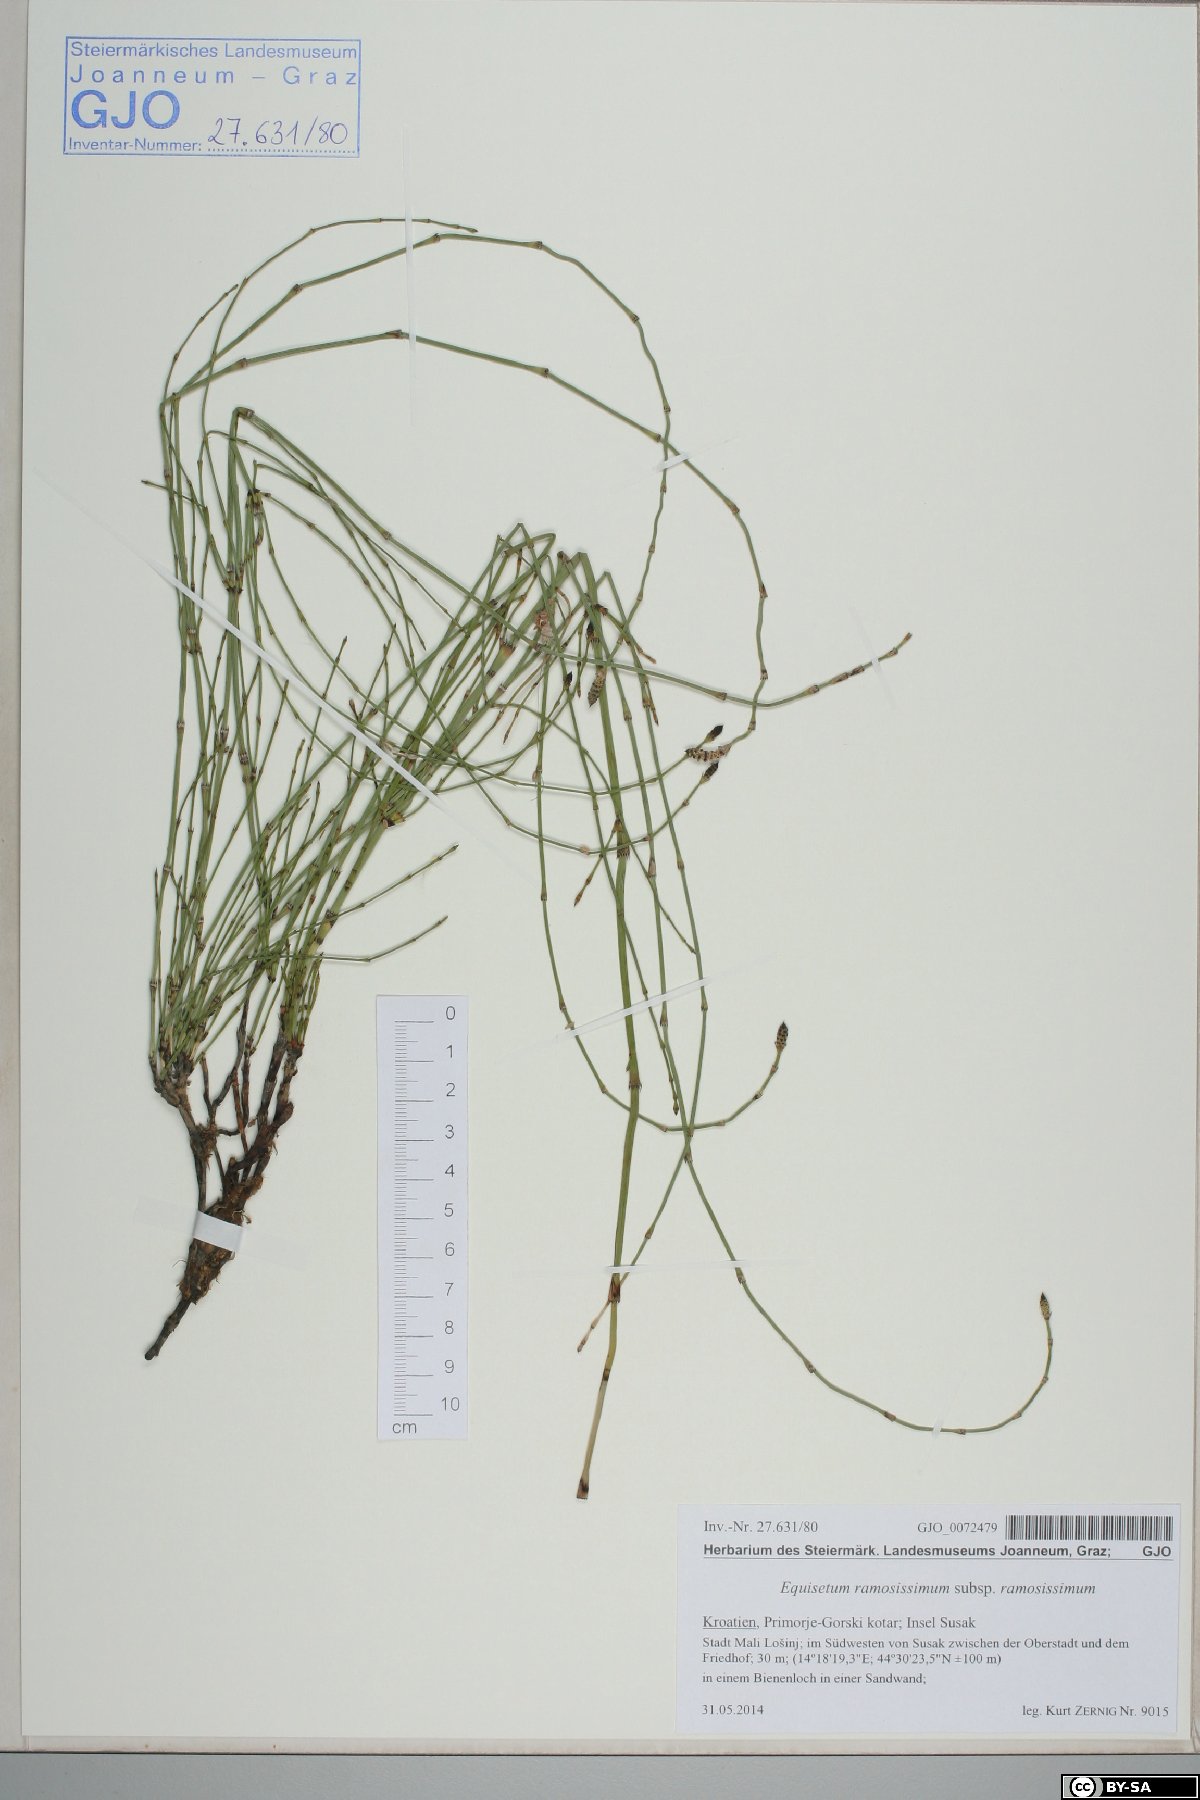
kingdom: Plantae
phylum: Tracheophyta
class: Polypodiopsida
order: Equisetales
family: Equisetaceae
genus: Equisetum
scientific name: Equisetum ramosissimum
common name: Branched horsetail
